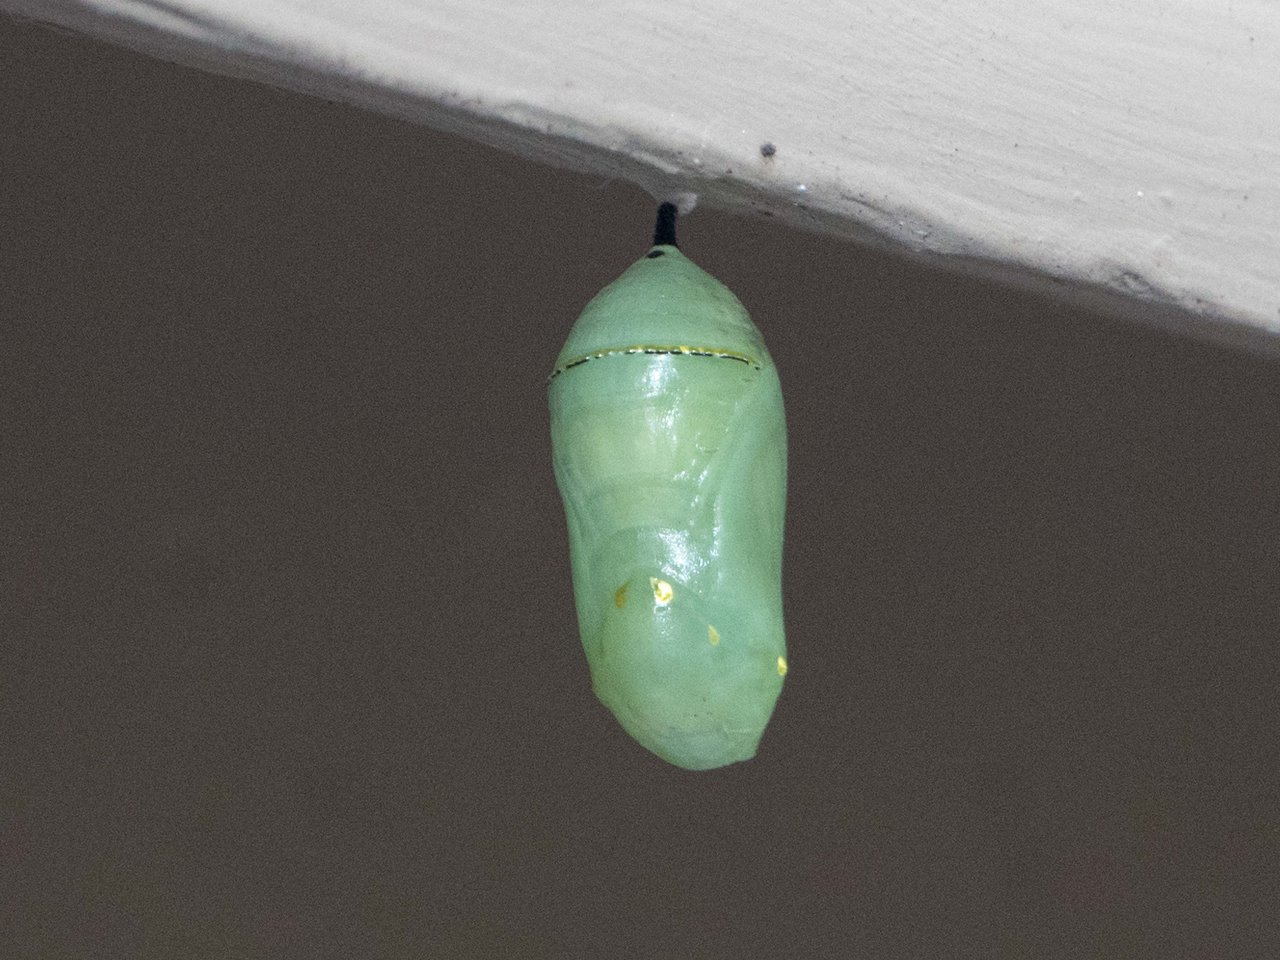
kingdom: Animalia
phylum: Arthropoda
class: Insecta
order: Lepidoptera
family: Nymphalidae
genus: Danaus
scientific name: Danaus plexippus
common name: Monarch
